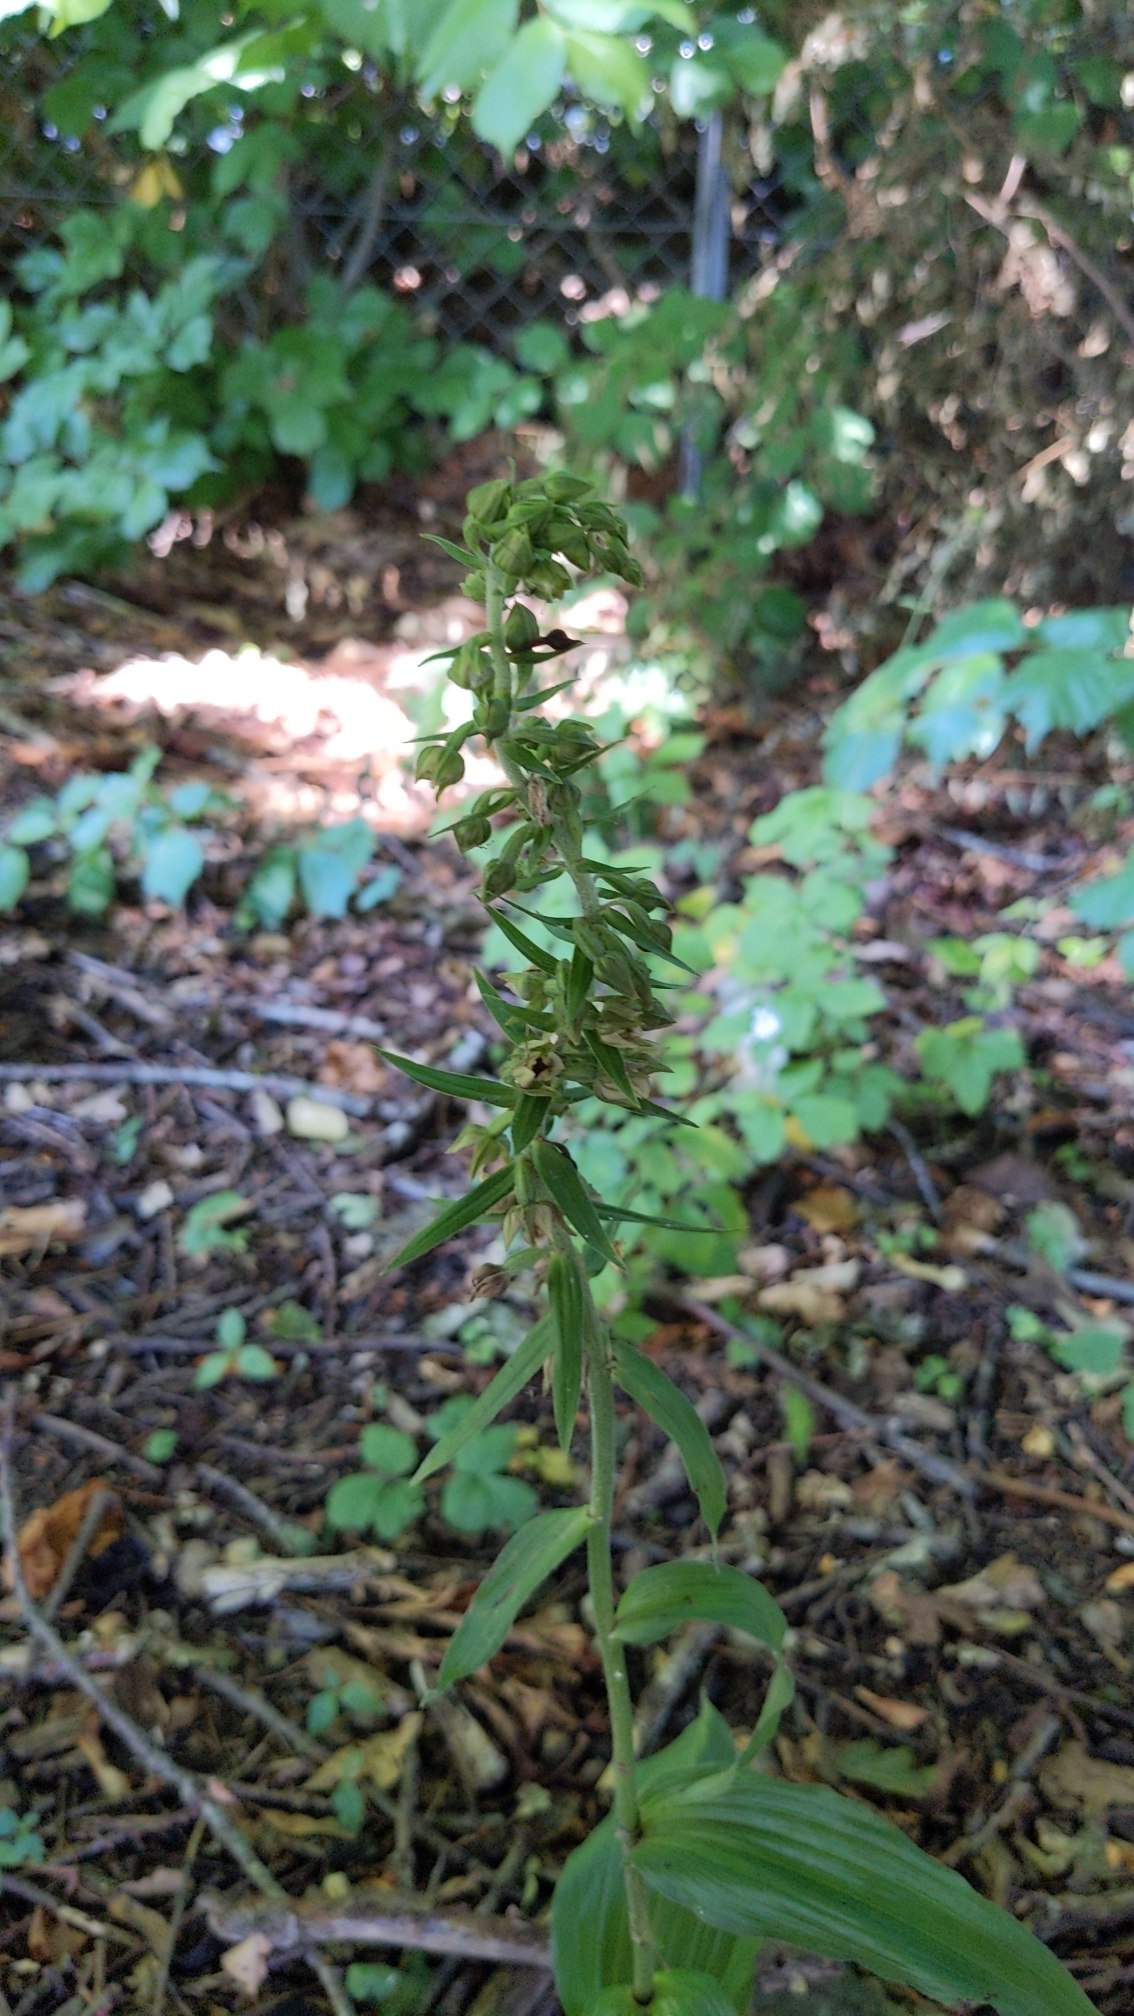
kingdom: Plantae
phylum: Tracheophyta
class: Liliopsida
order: Asparagales
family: Orchidaceae
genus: Epipactis
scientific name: Epipactis helleborine
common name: Skov-hullæbe
